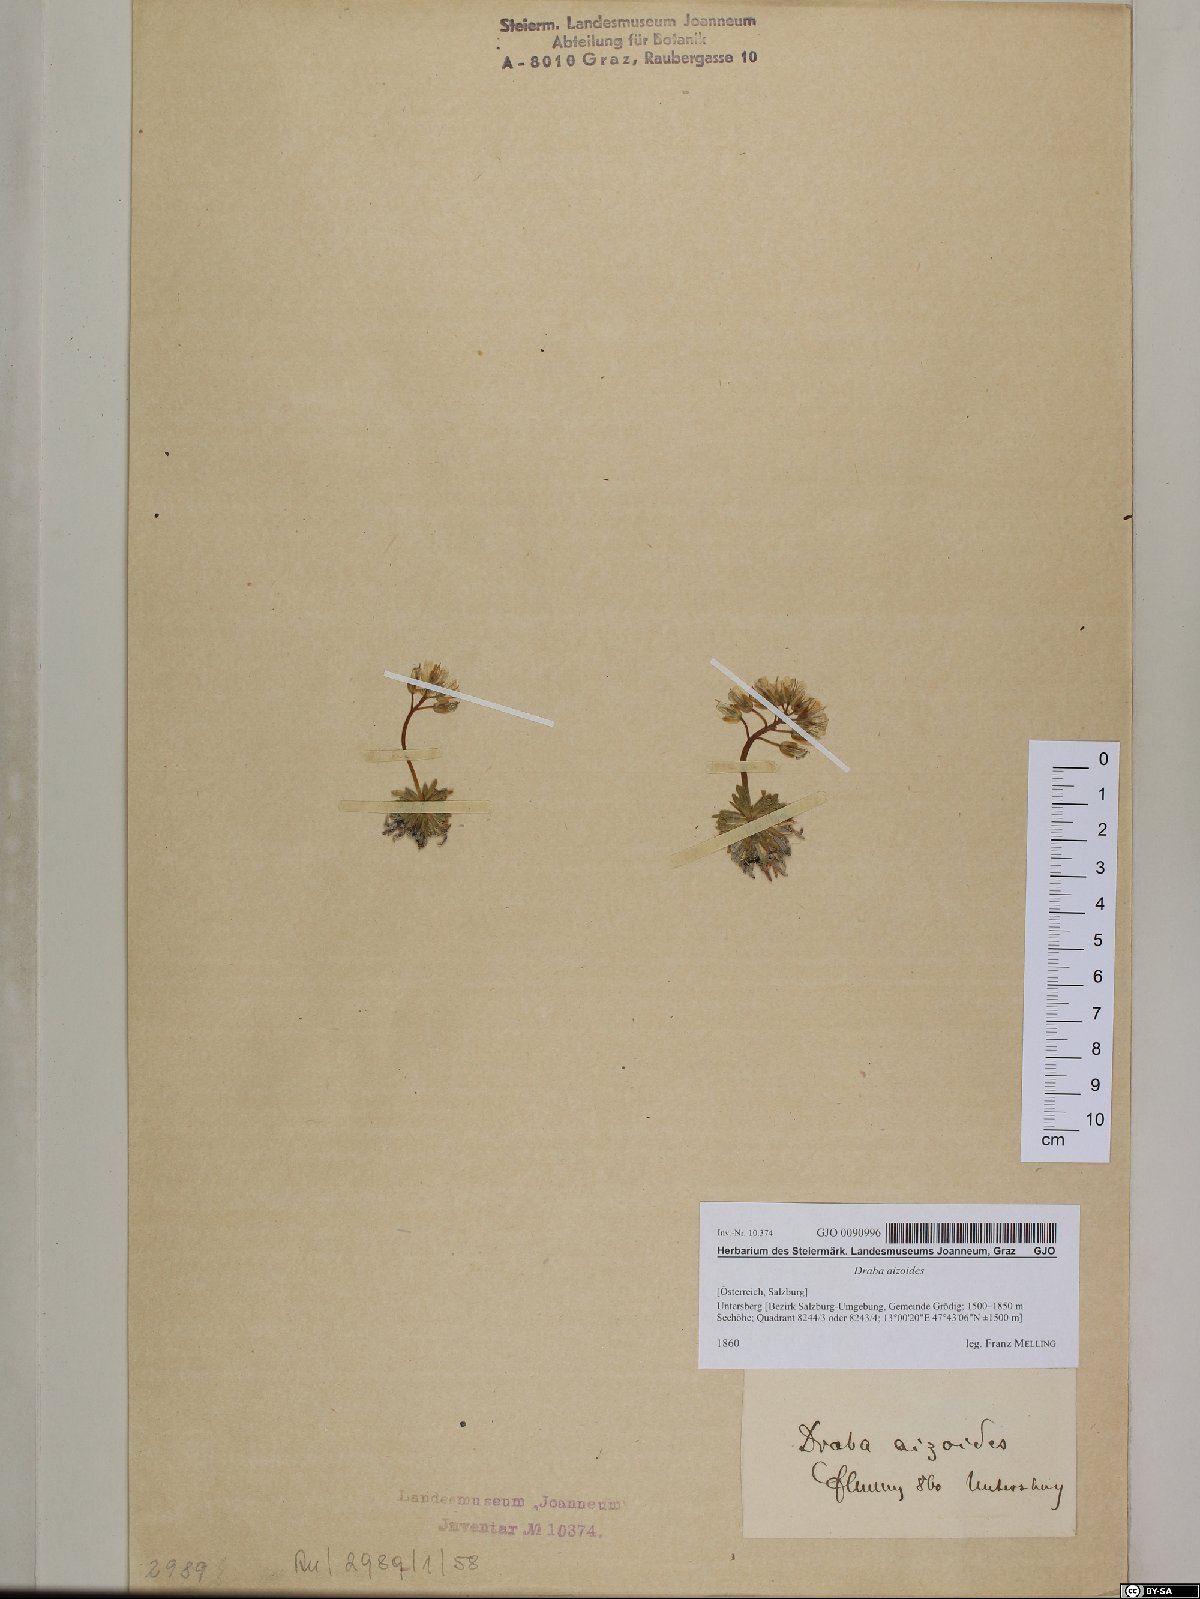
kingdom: Plantae
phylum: Tracheophyta
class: Magnoliopsida
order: Brassicales
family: Brassicaceae
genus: Draba
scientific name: Draba aizoides
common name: Yellow whitlowgrass
